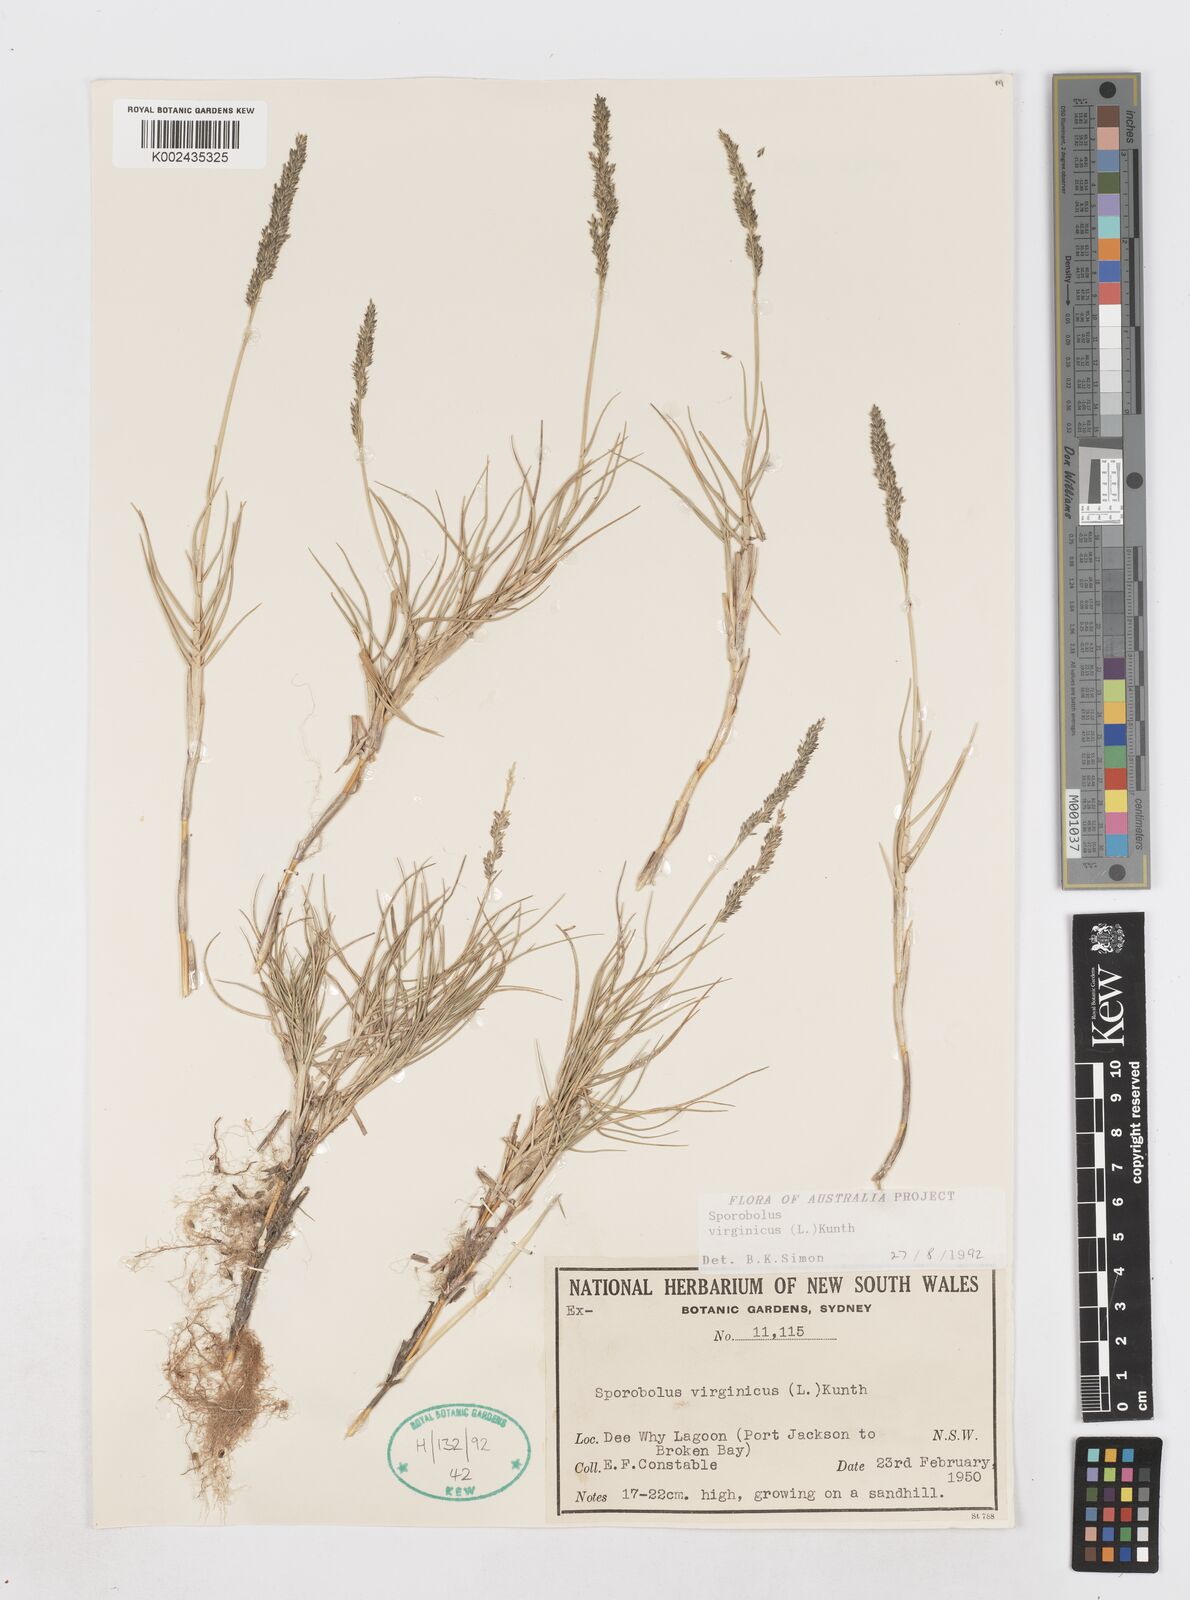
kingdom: Plantae
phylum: Tracheophyta
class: Liliopsida
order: Poales
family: Poaceae
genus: Sporobolus
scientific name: Sporobolus virginicus
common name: Beach dropseed
